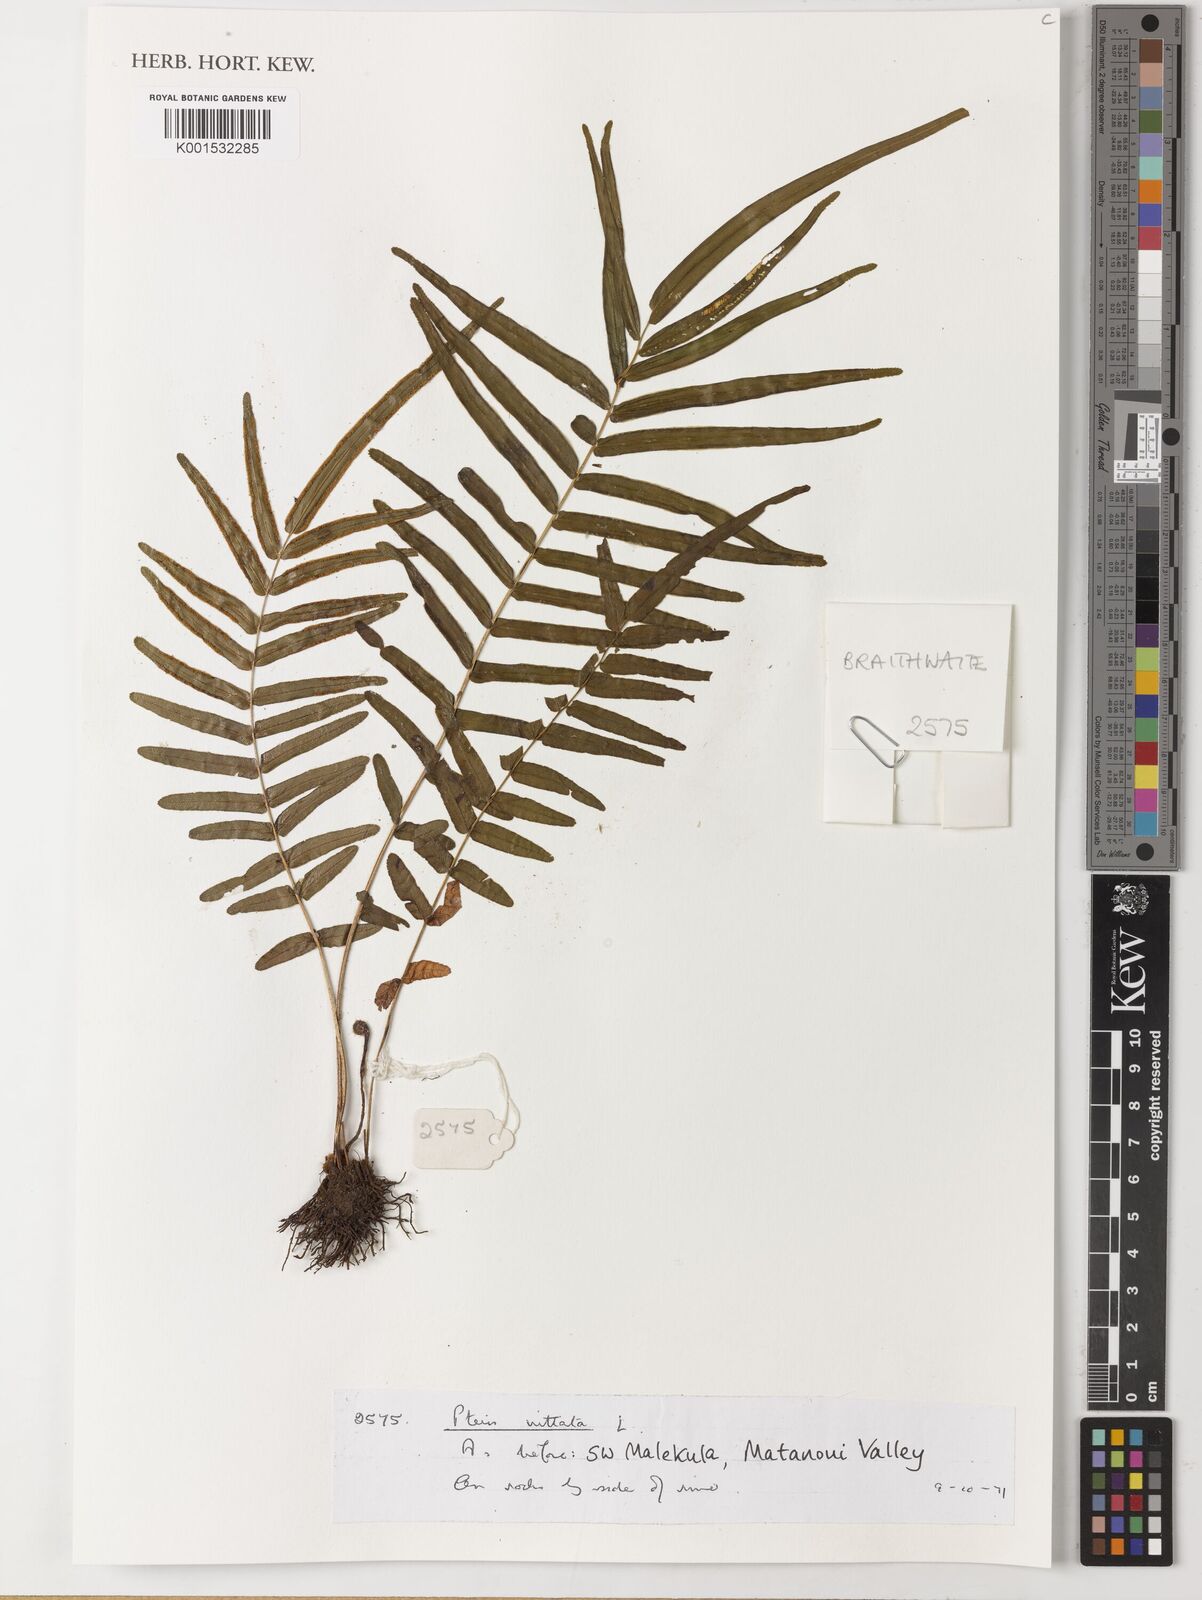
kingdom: Plantae
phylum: Tracheophyta
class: Polypodiopsida
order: Polypodiales
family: Pteridaceae
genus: Pteris
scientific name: Pteris vittata
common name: Ladder brake
